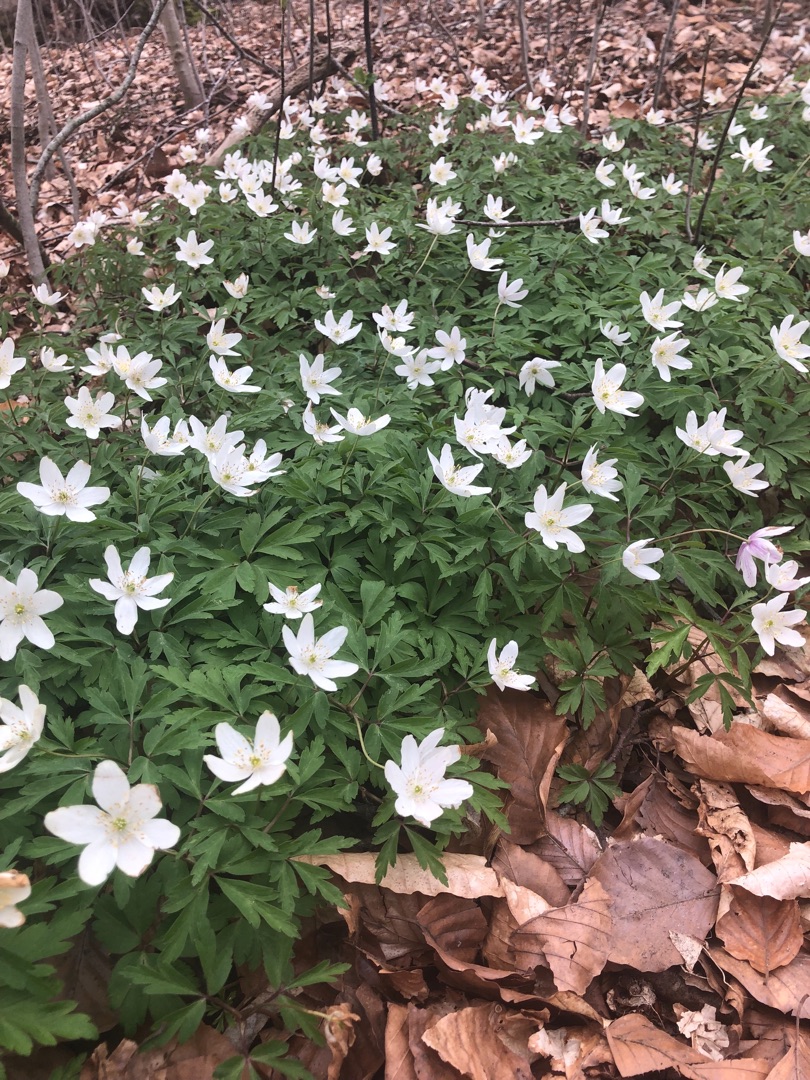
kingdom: Plantae
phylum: Tracheophyta
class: Magnoliopsida
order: Ranunculales
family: Ranunculaceae
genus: Anemone
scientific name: Anemone nemorosa
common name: Hvid anemone
